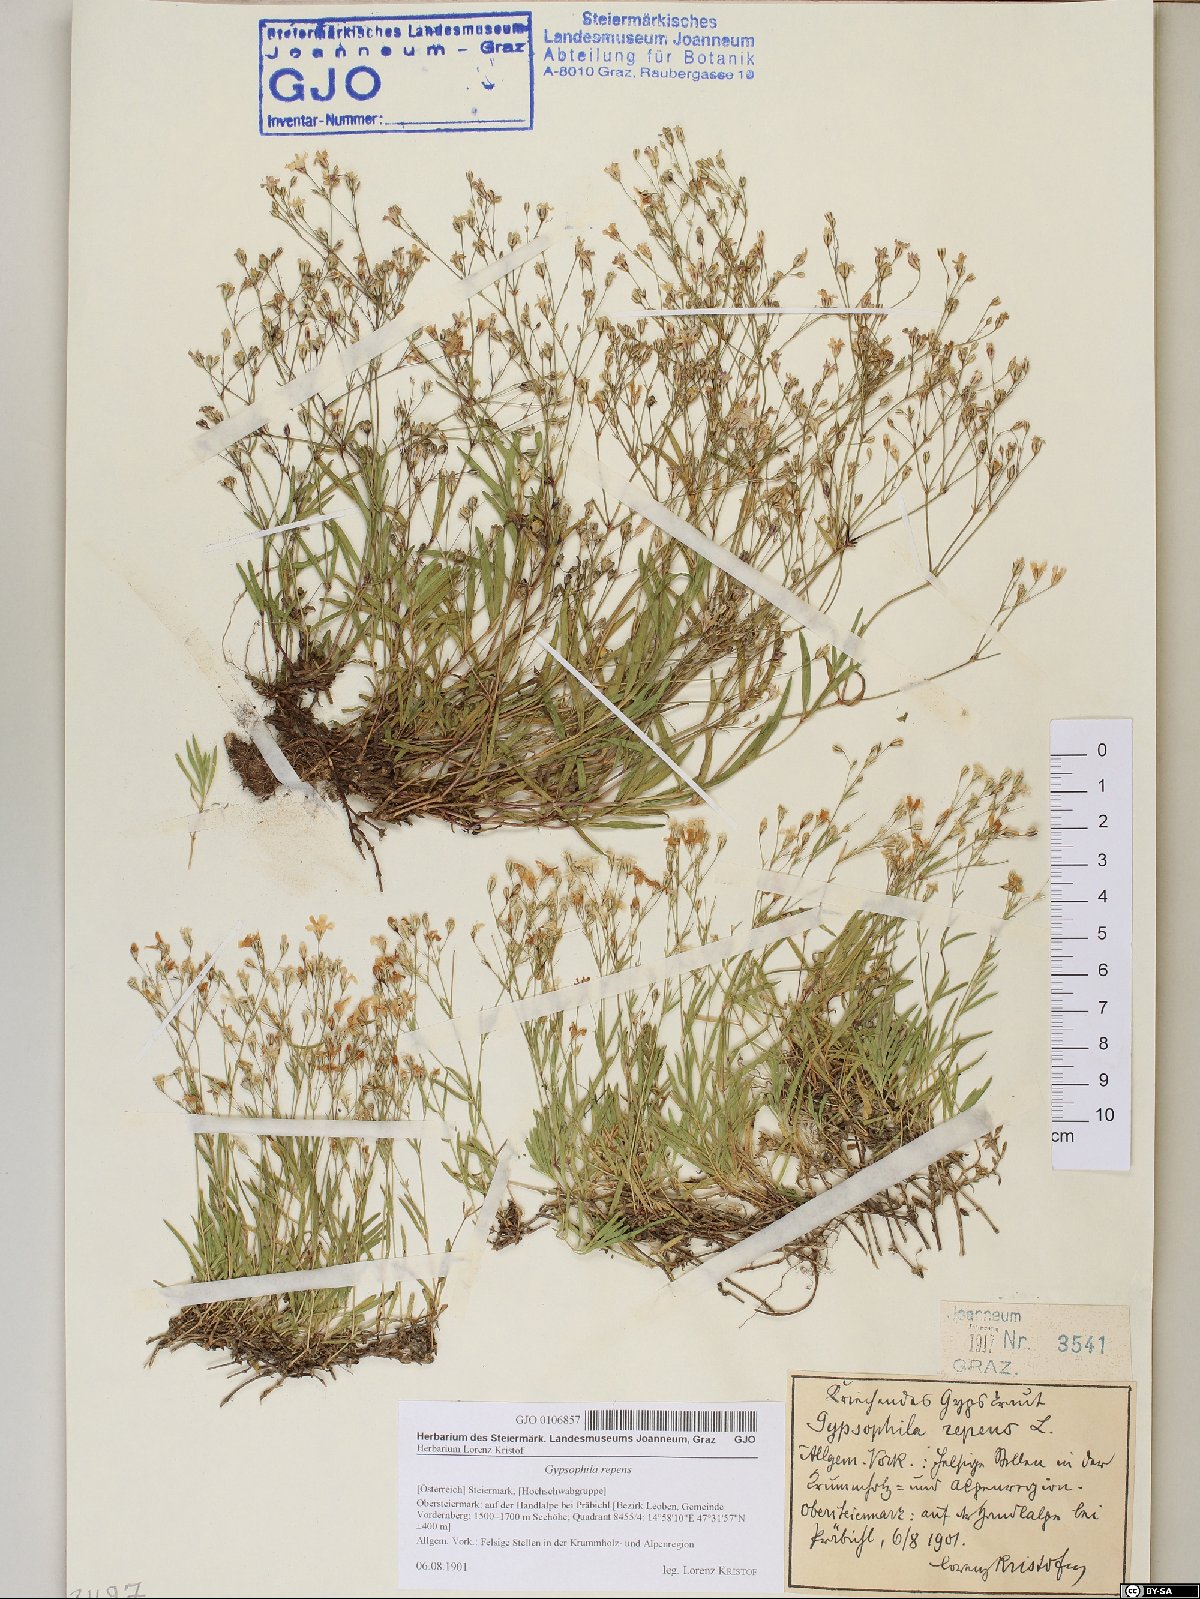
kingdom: Plantae
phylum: Tracheophyta
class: Magnoliopsida
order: Caryophyllales
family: Caryophyllaceae
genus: Gypsophila
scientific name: Gypsophila repens
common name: Creeping baby's-breath
